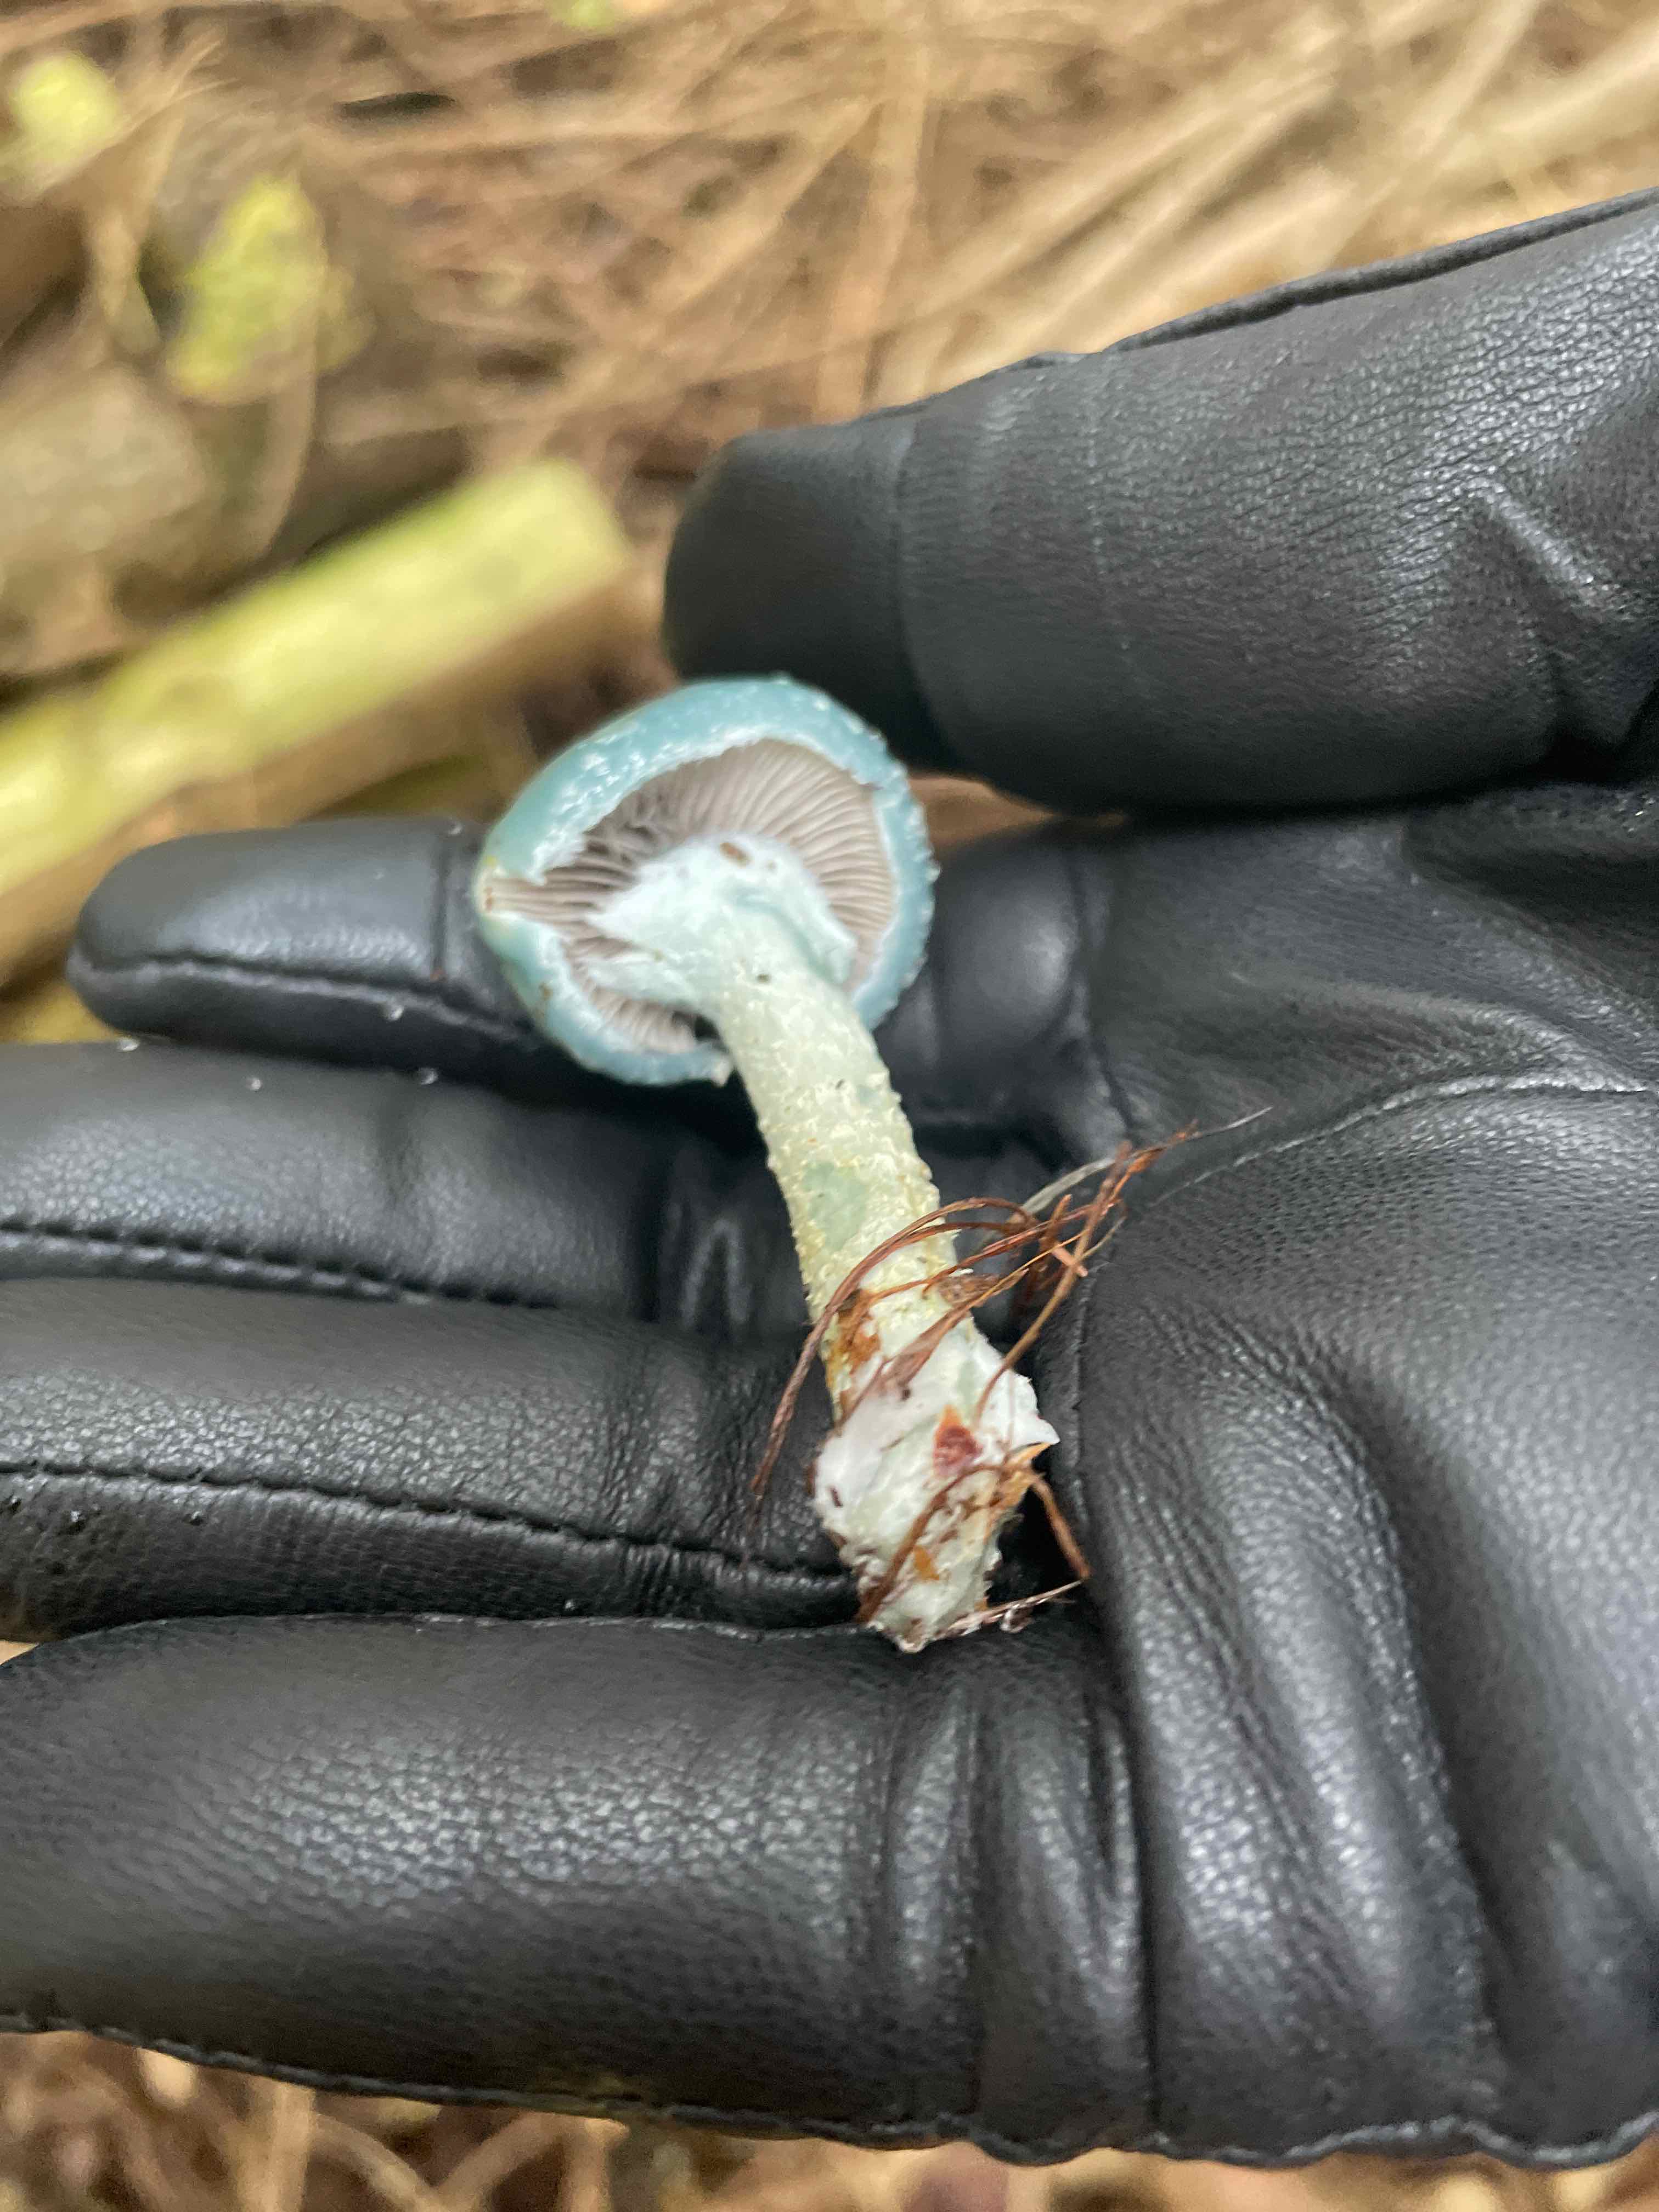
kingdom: Fungi
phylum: Basidiomycota
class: Agaricomycetes
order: Agaricales
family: Strophariaceae
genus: Stropharia
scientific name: Stropharia aeruginosa
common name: spanskgrøn bredblad
